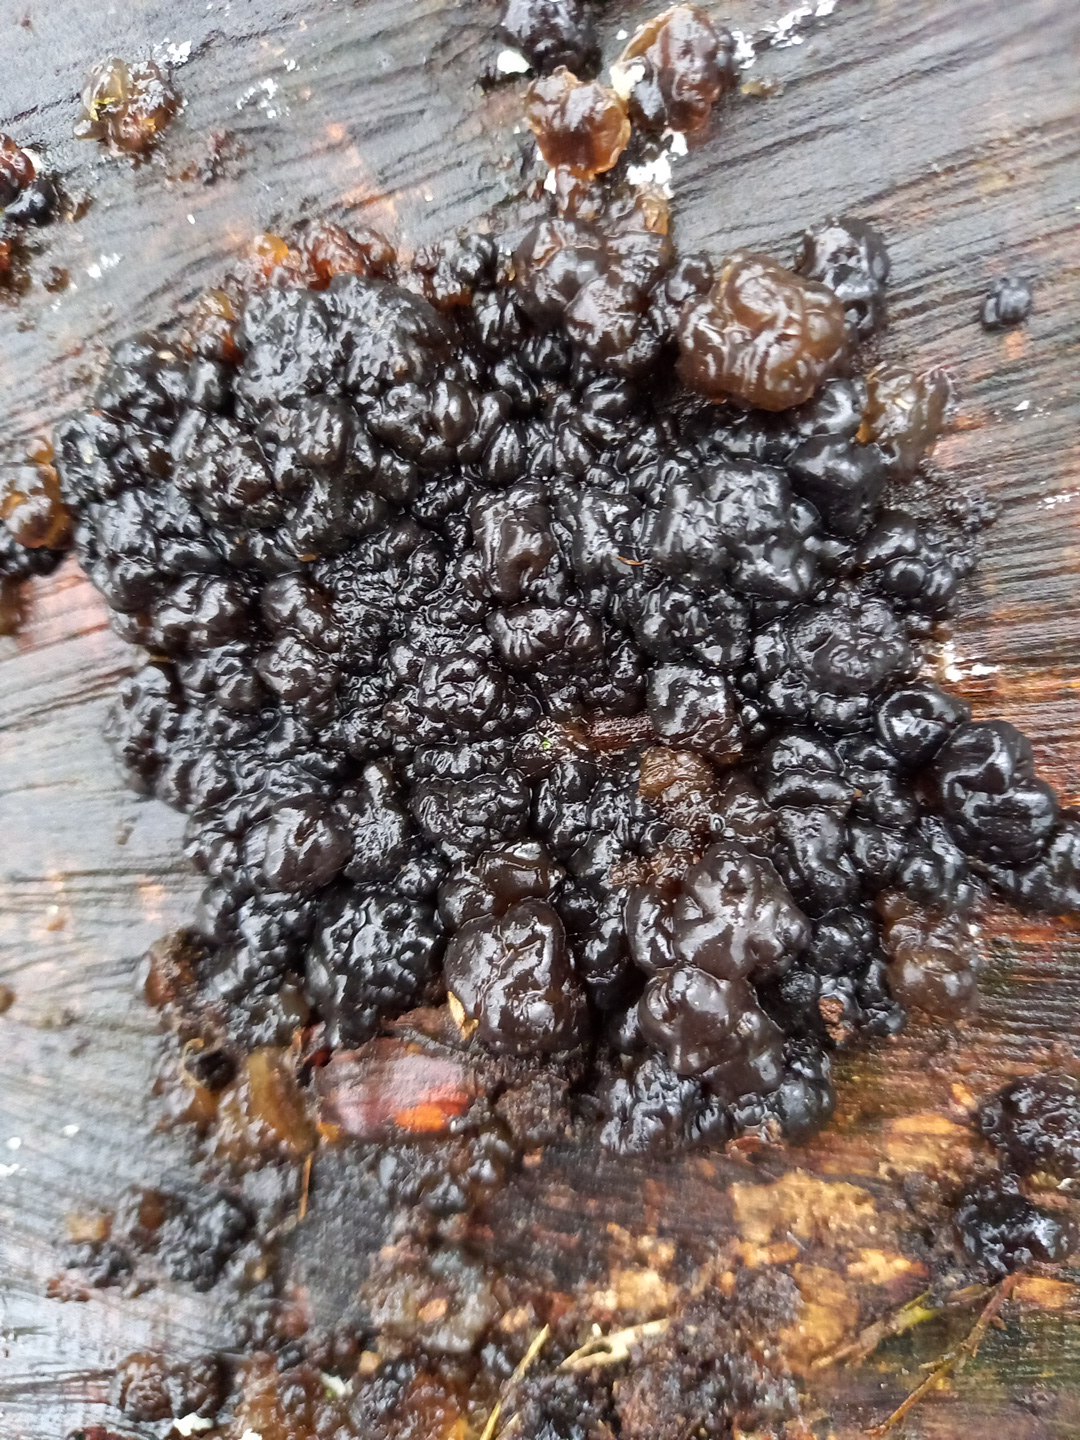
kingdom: Fungi
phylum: Basidiomycota
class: Agaricomycetes
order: Auriculariales
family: Auriculariaceae
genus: Exidia
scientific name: Exidia nigricans
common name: almindelig bævretop
